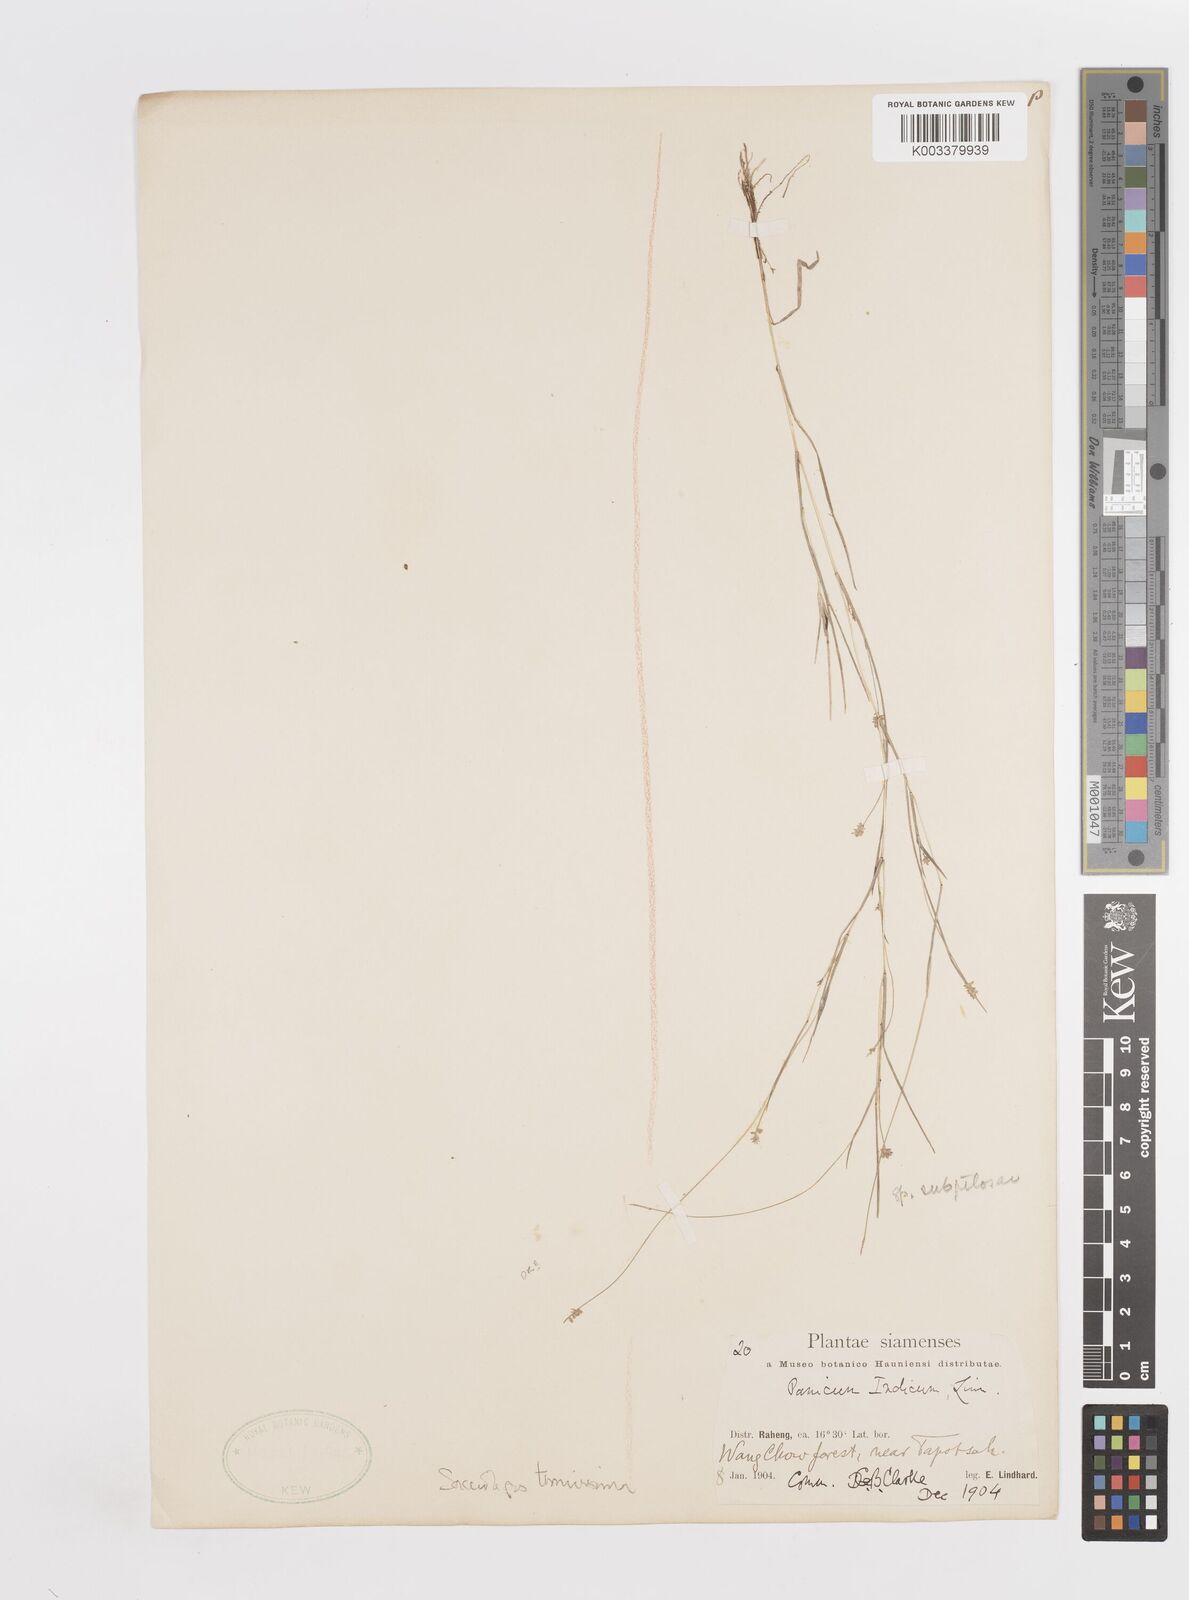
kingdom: Plantae
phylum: Tracheophyta
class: Liliopsida
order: Poales
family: Poaceae
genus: Sacciolepis
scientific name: Sacciolepis tenuissima
